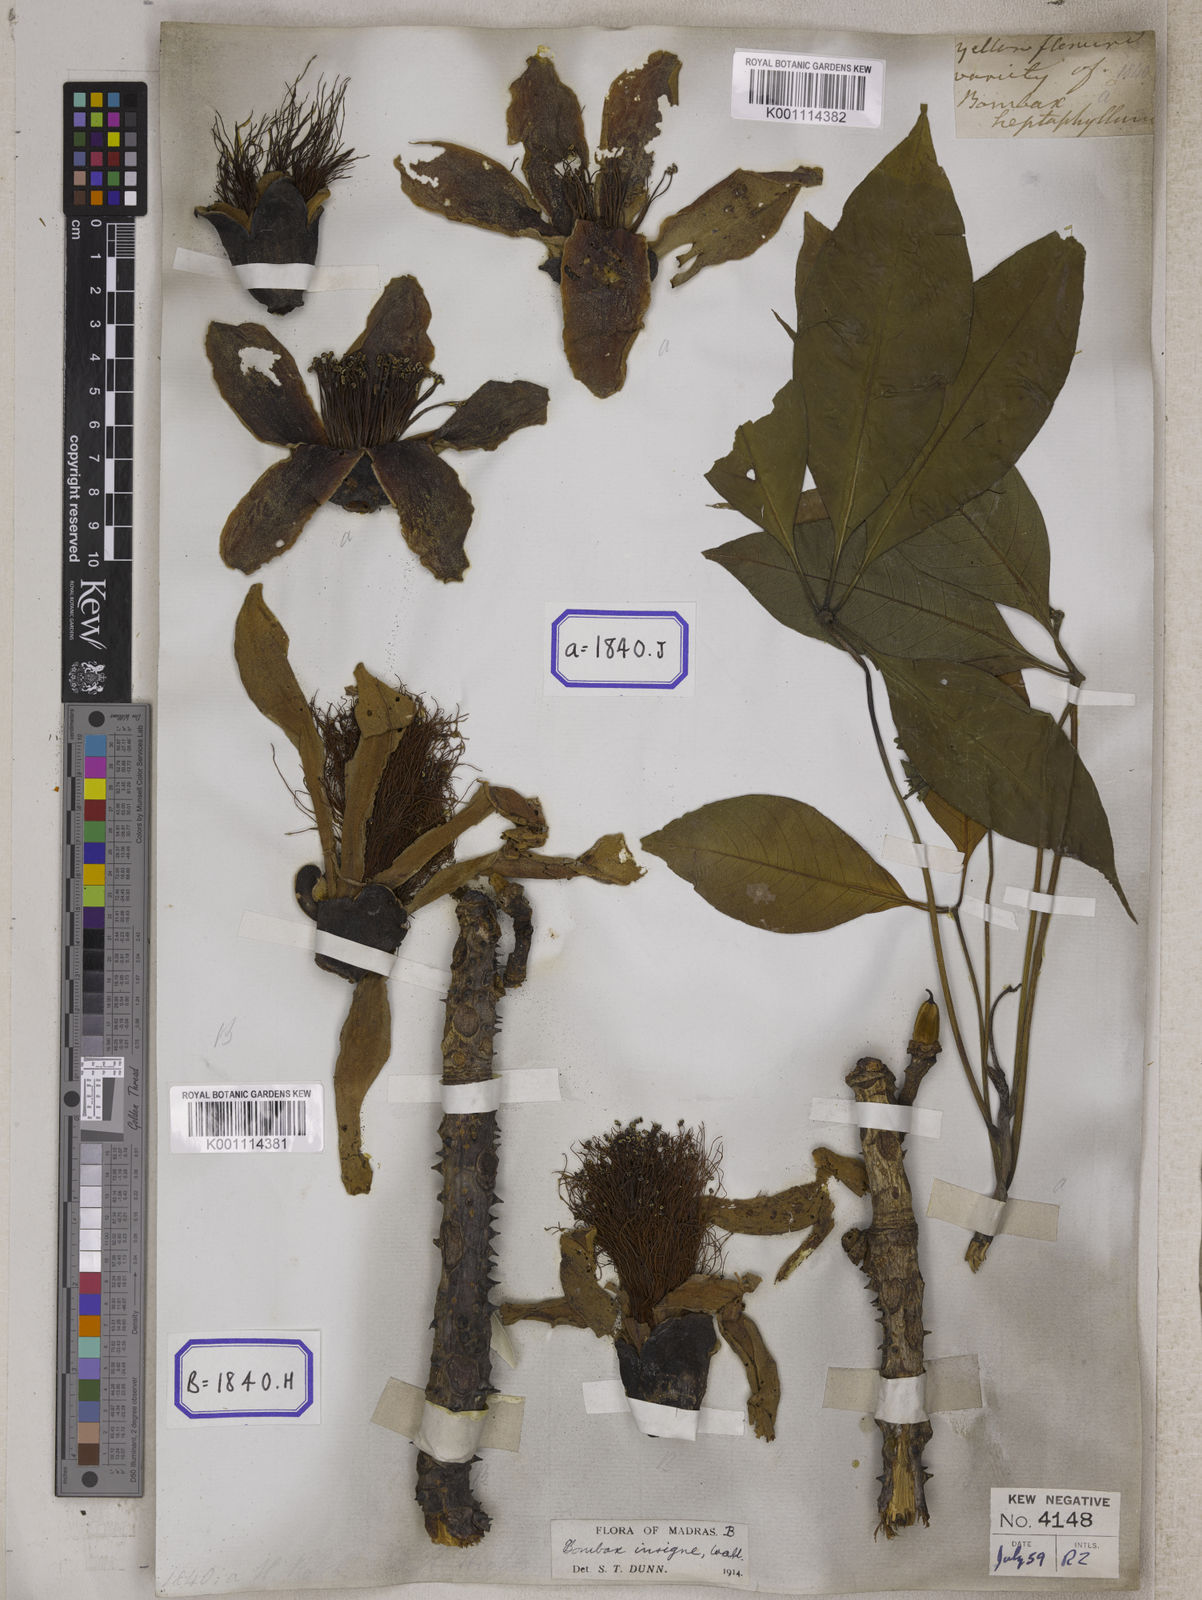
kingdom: Plantae
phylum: Tracheophyta
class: Magnoliopsida
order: Malvales
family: Malvaceae
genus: Bombax
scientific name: Bombax ceiba
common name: Northern-cottonwood
